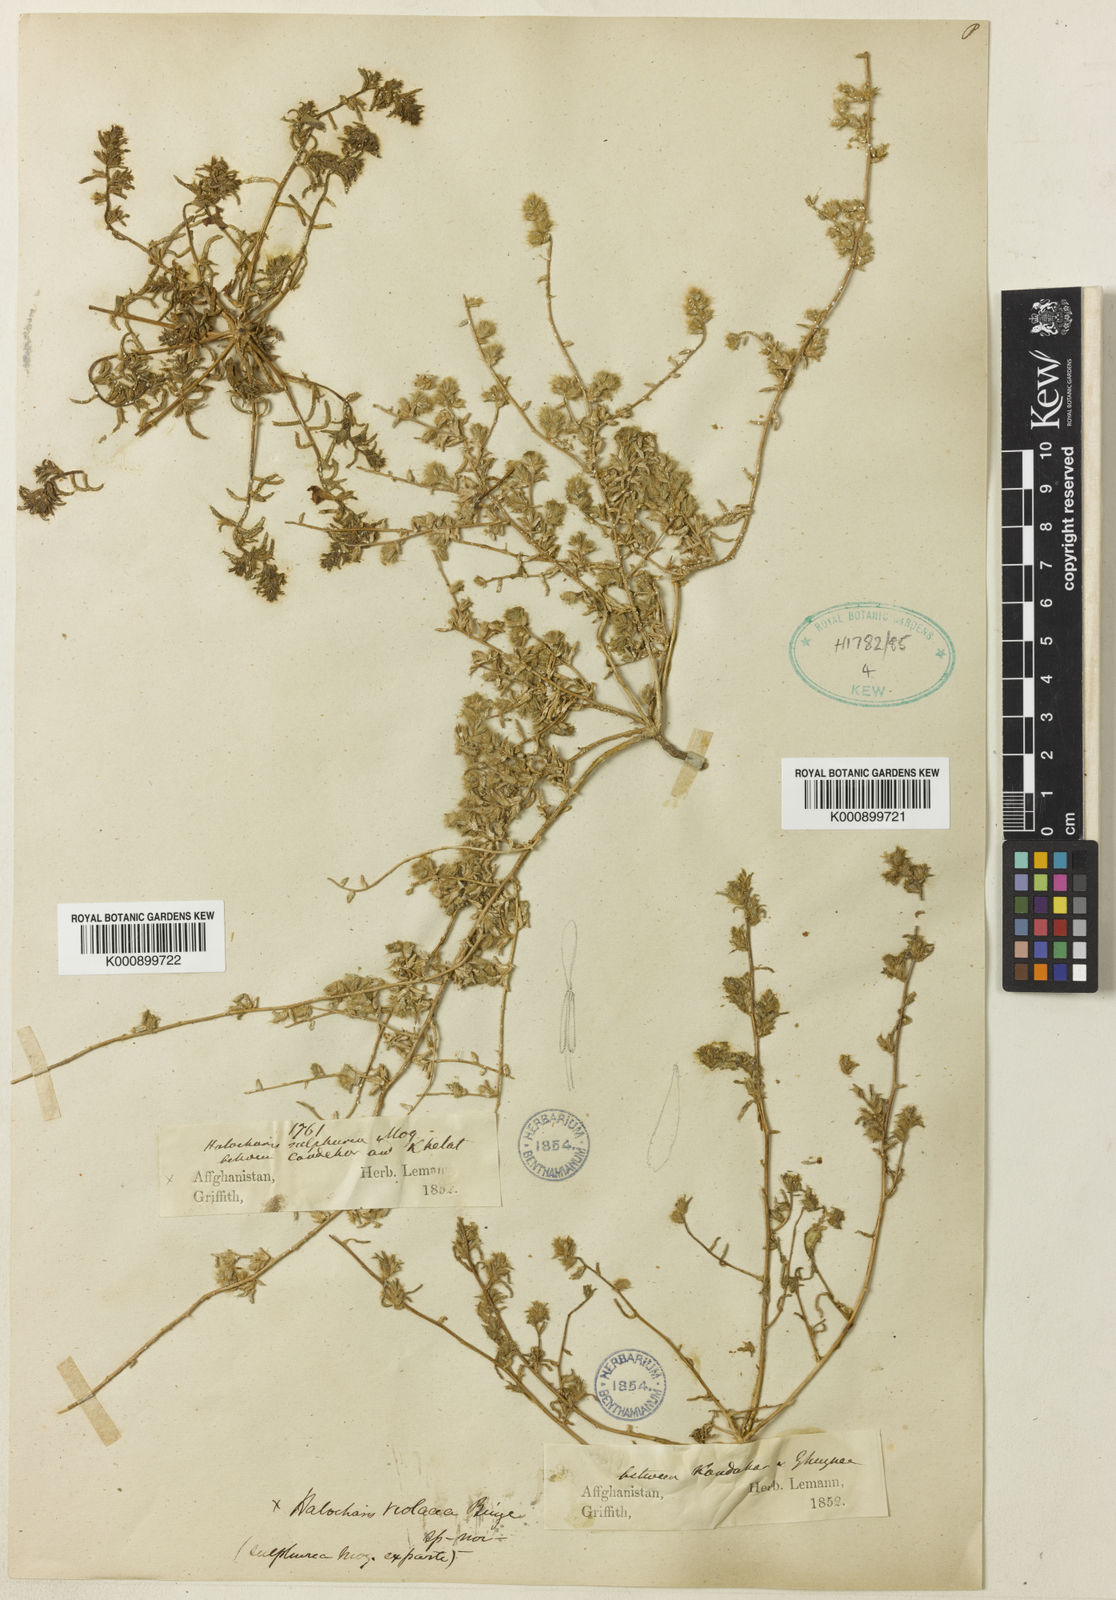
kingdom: Plantae
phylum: Tracheophyta
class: Magnoliopsida
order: Caryophyllales
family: Amaranthaceae
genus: Halocharis
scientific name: Halocharis violacea
